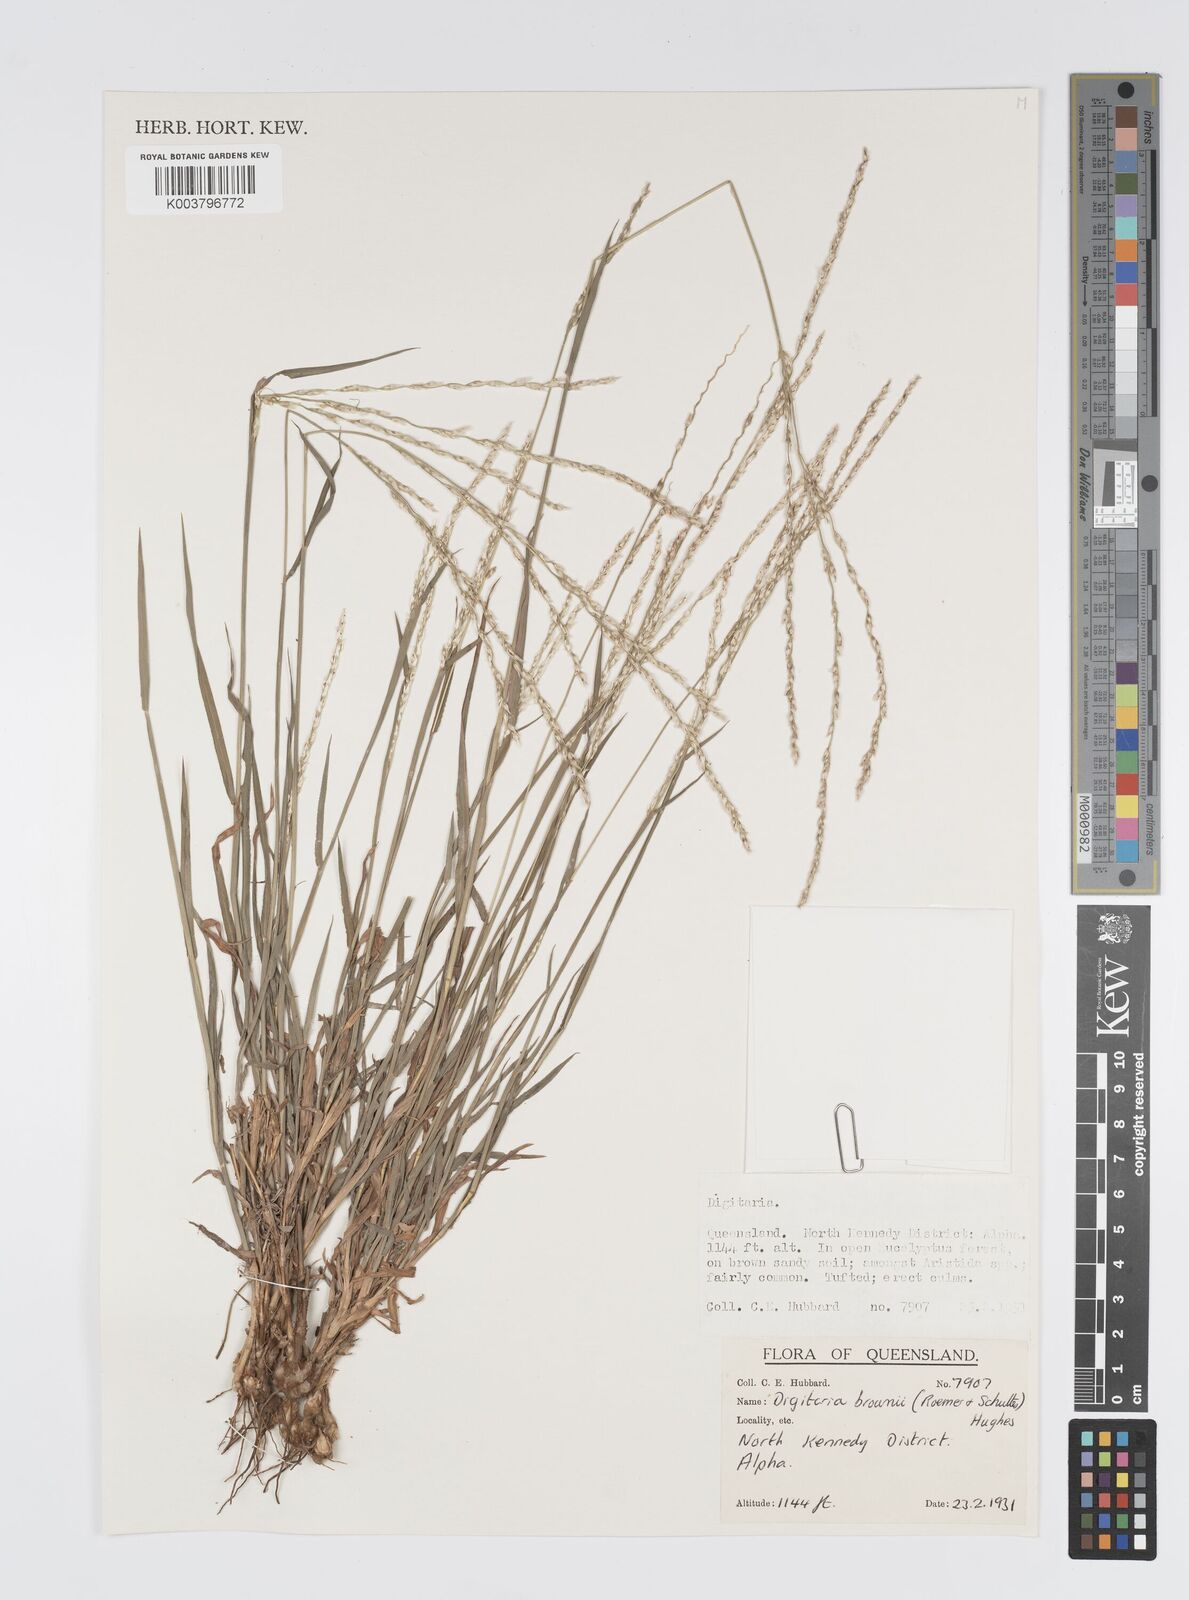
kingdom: Plantae
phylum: Tracheophyta
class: Liliopsida
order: Poales
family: Poaceae
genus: Digitaria
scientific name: Digitaria brownii
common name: Cotton grass
